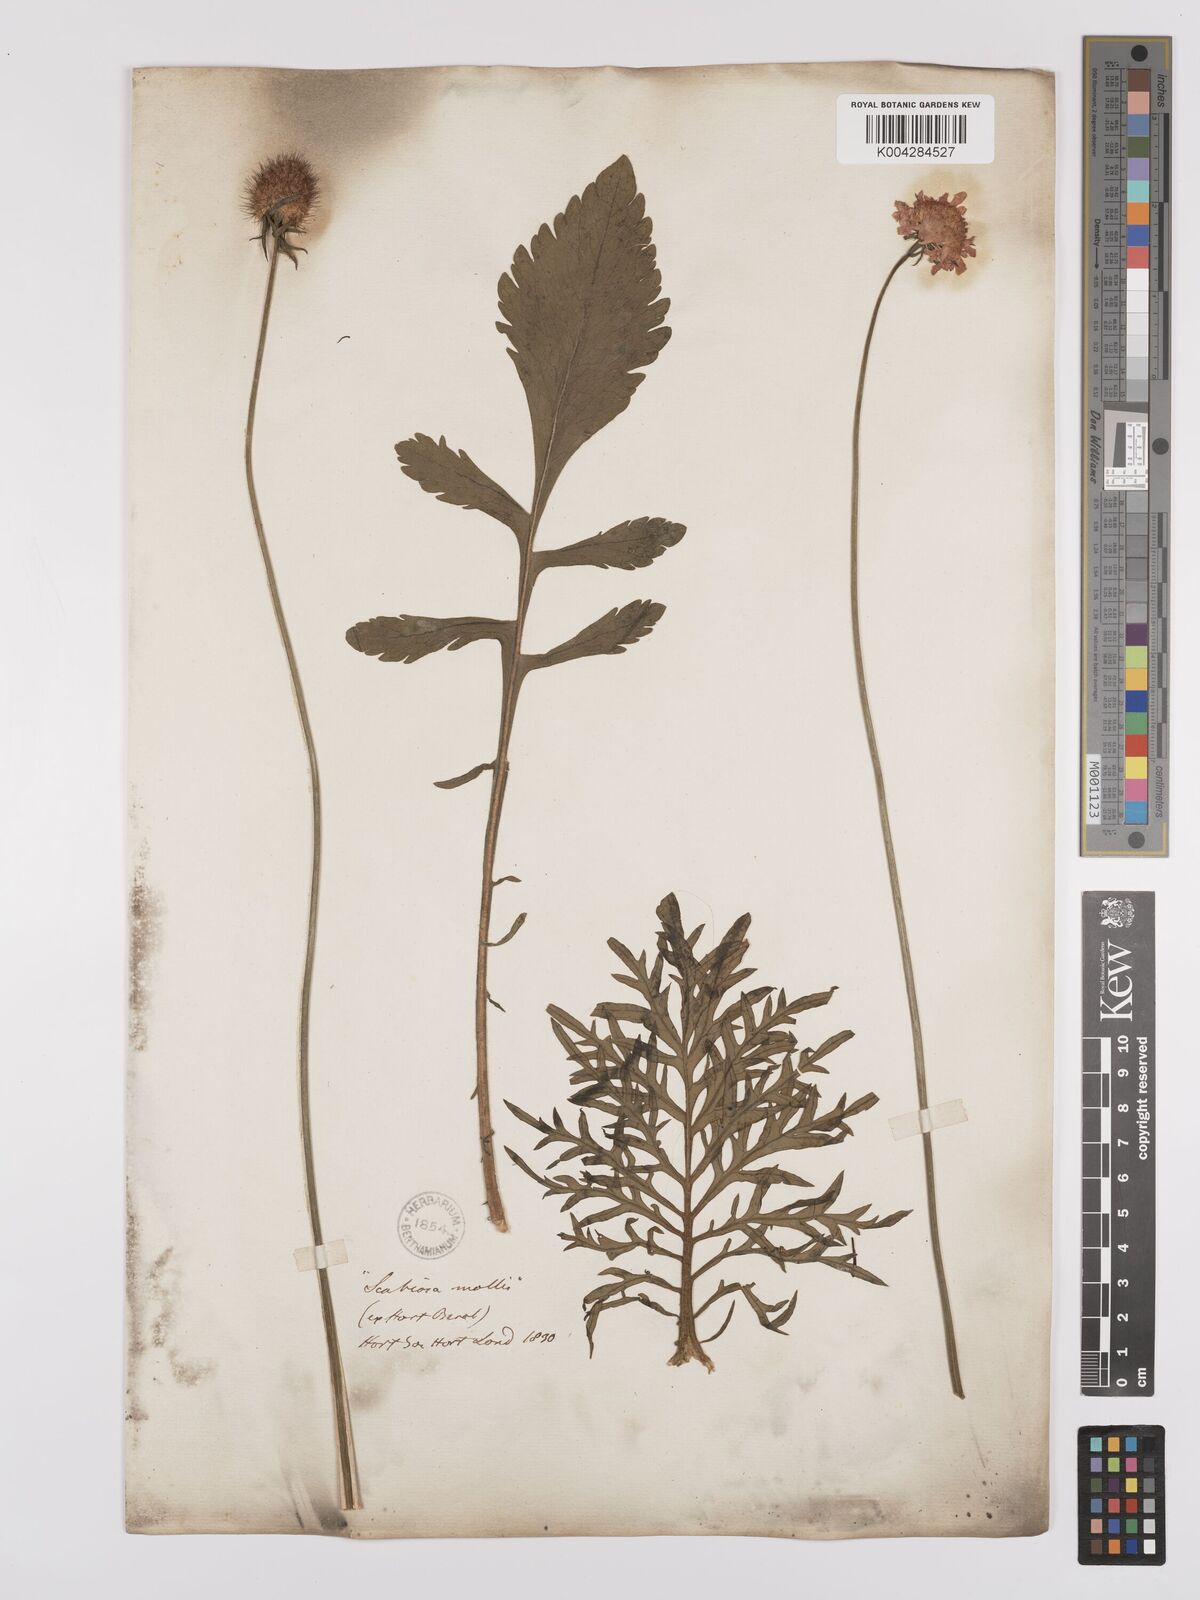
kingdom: Plantae
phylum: Tracheophyta
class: Magnoliopsida
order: Dipsacales
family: Caprifoliaceae
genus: Scabiosa
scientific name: Scabiosa triandra
